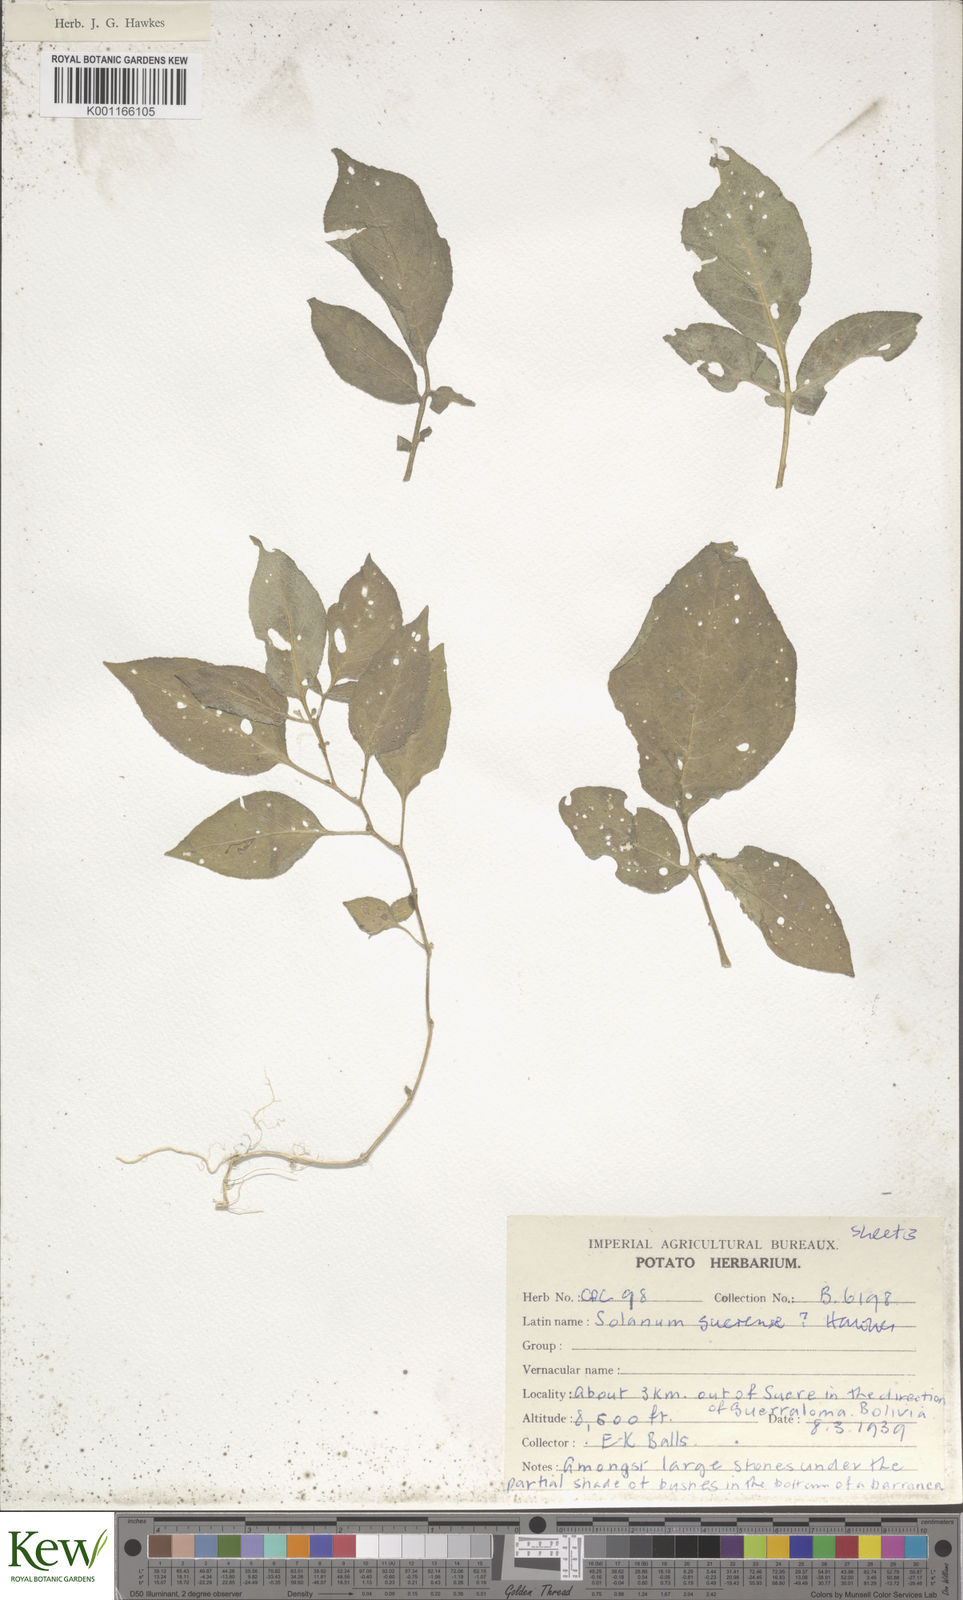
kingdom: Plantae
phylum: Tracheophyta
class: Magnoliopsida
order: Solanales
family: Solanaceae
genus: Solanum
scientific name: Solanum brevicaule
